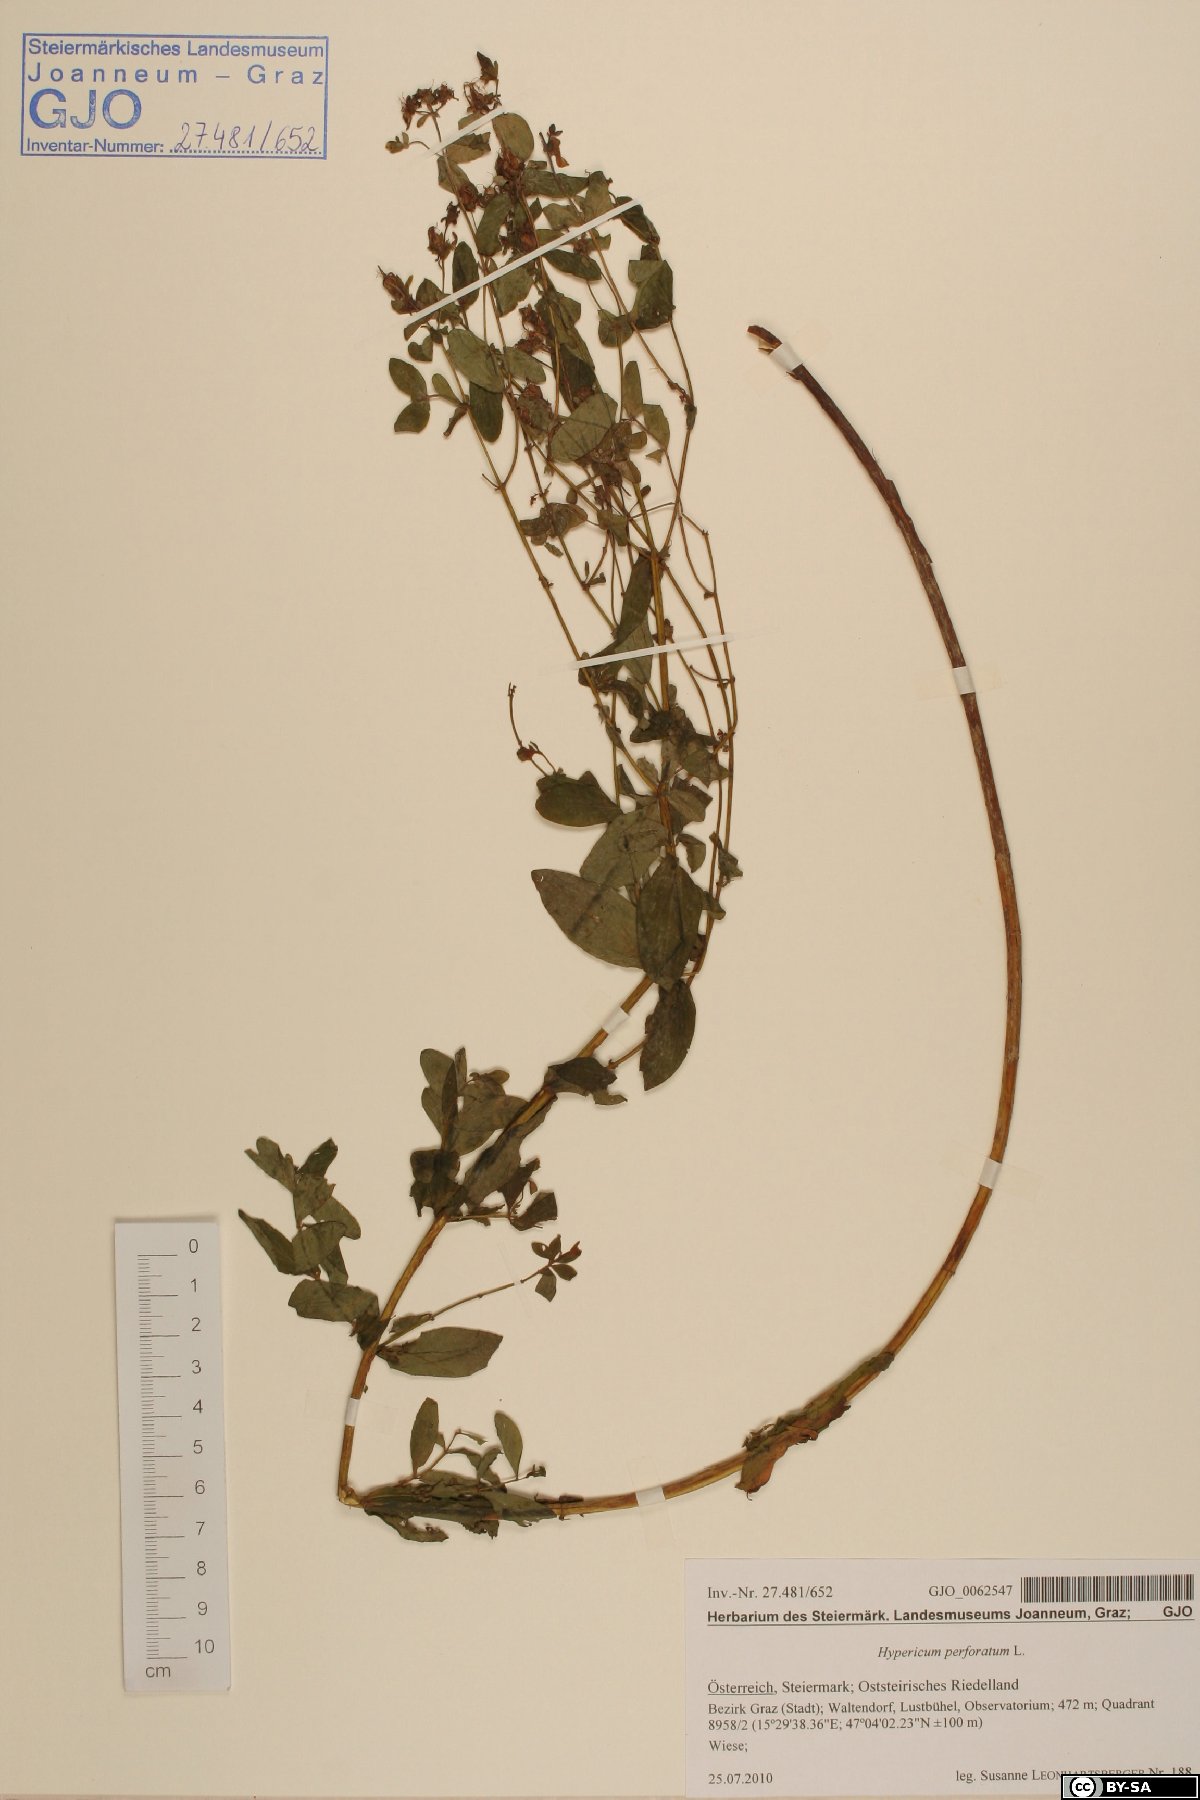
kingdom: Plantae
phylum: Tracheophyta
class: Magnoliopsida
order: Malpighiales
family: Hypericaceae
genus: Hypericum
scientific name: Hypericum perforatum
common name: Common st. johnswort
